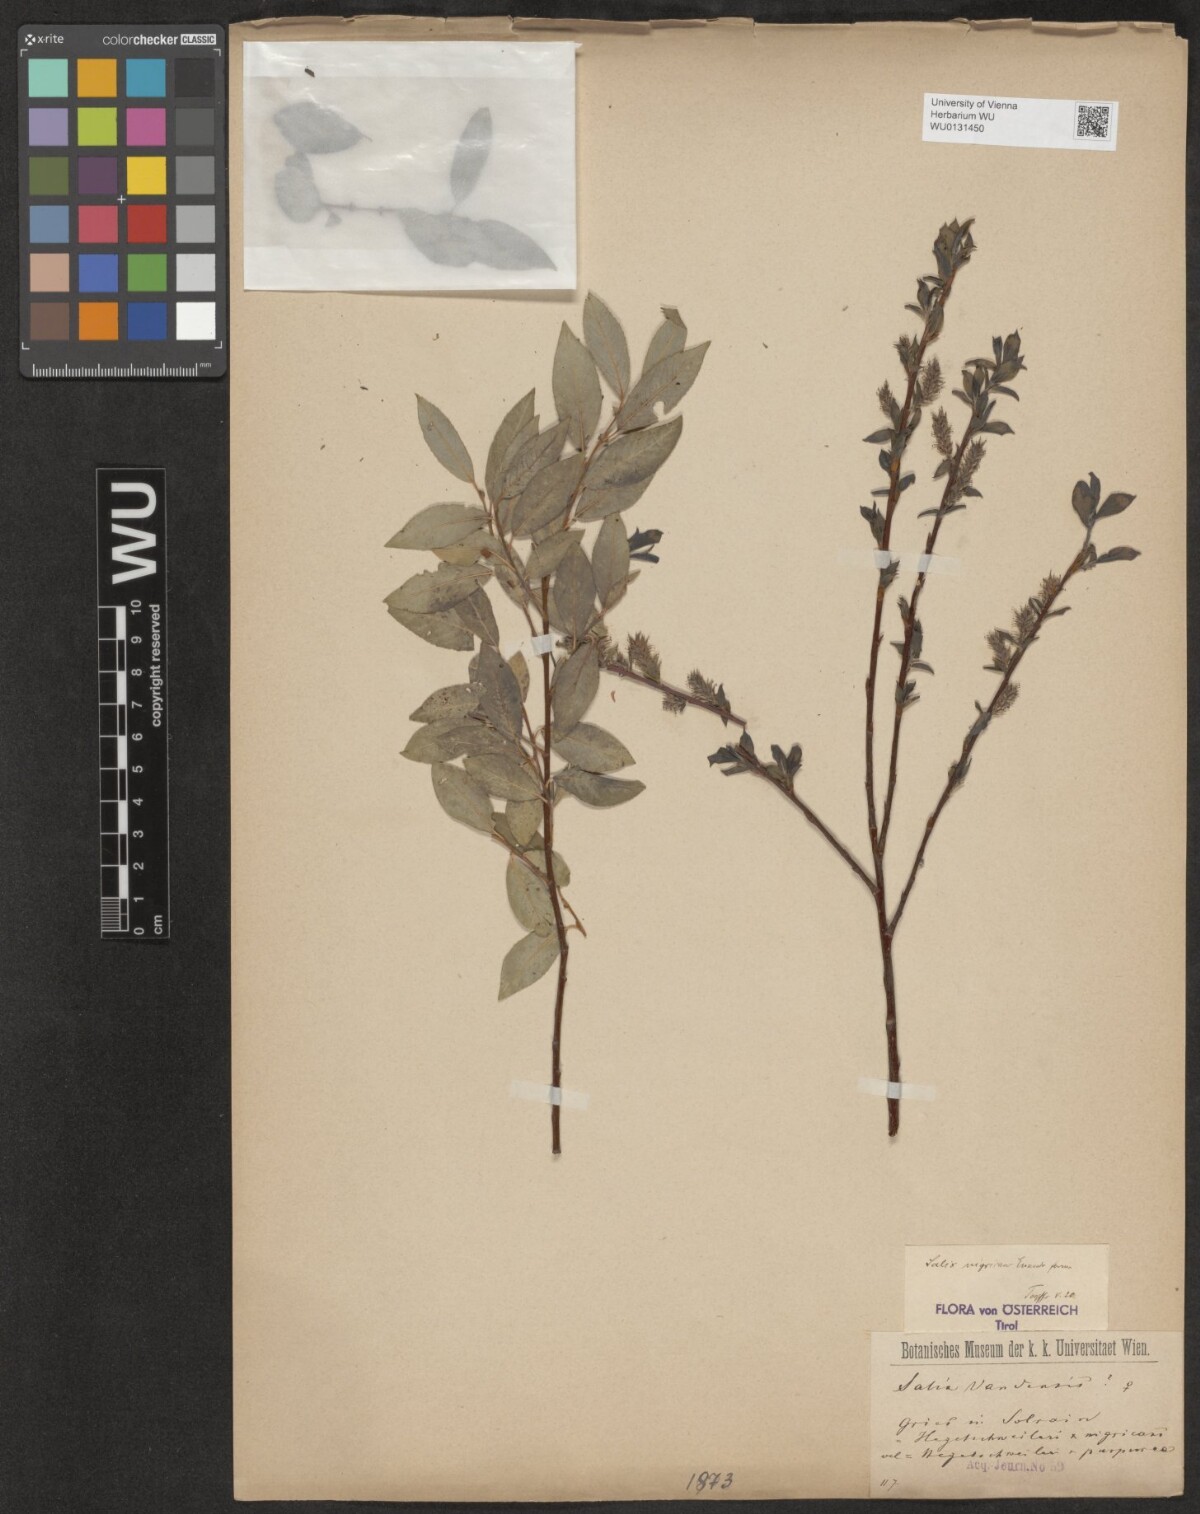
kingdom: Plantae
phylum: Tracheophyta
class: Magnoliopsida
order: Malpighiales
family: Salicaceae
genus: Salix
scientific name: Salix myrsinifolia
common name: Dark-leaved willow
